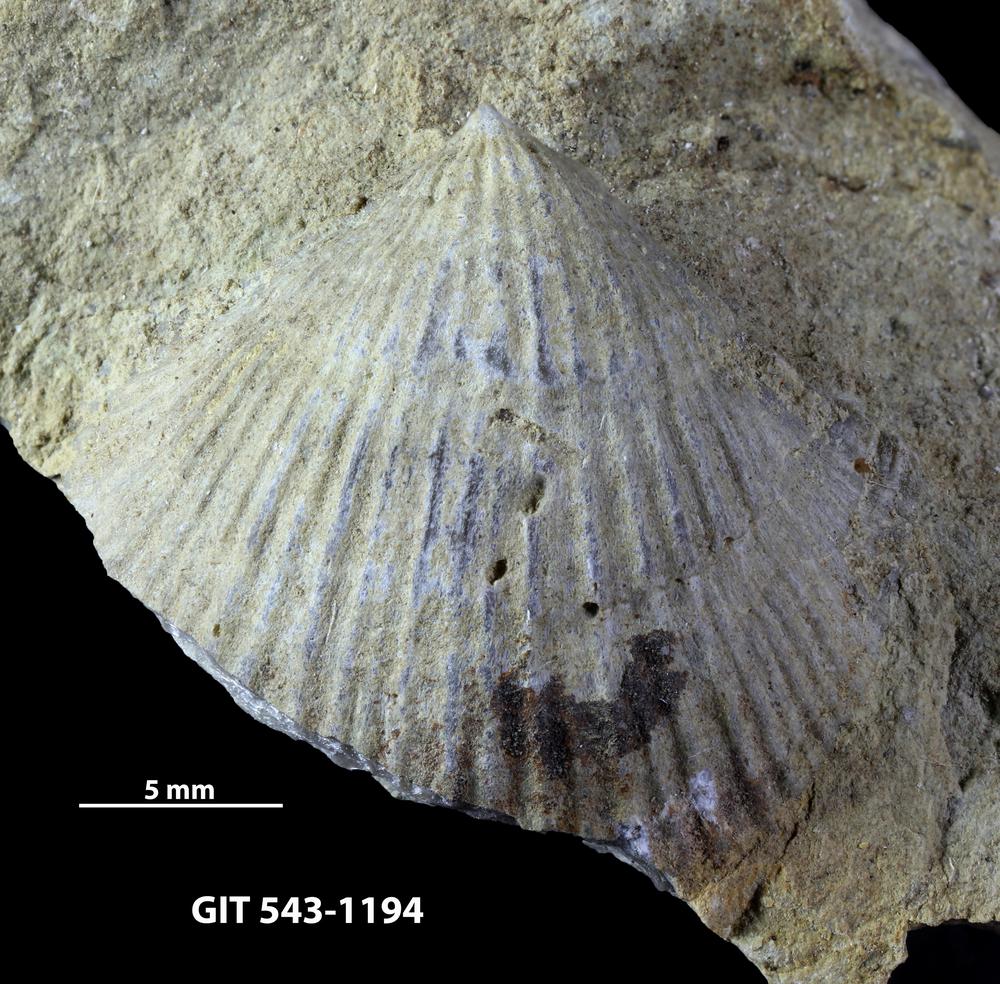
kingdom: Animalia
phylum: Brachiopoda
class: Rhynchonellata
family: Clitambonitidae
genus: Vellamo
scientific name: Vellamo Orthis verneuili
